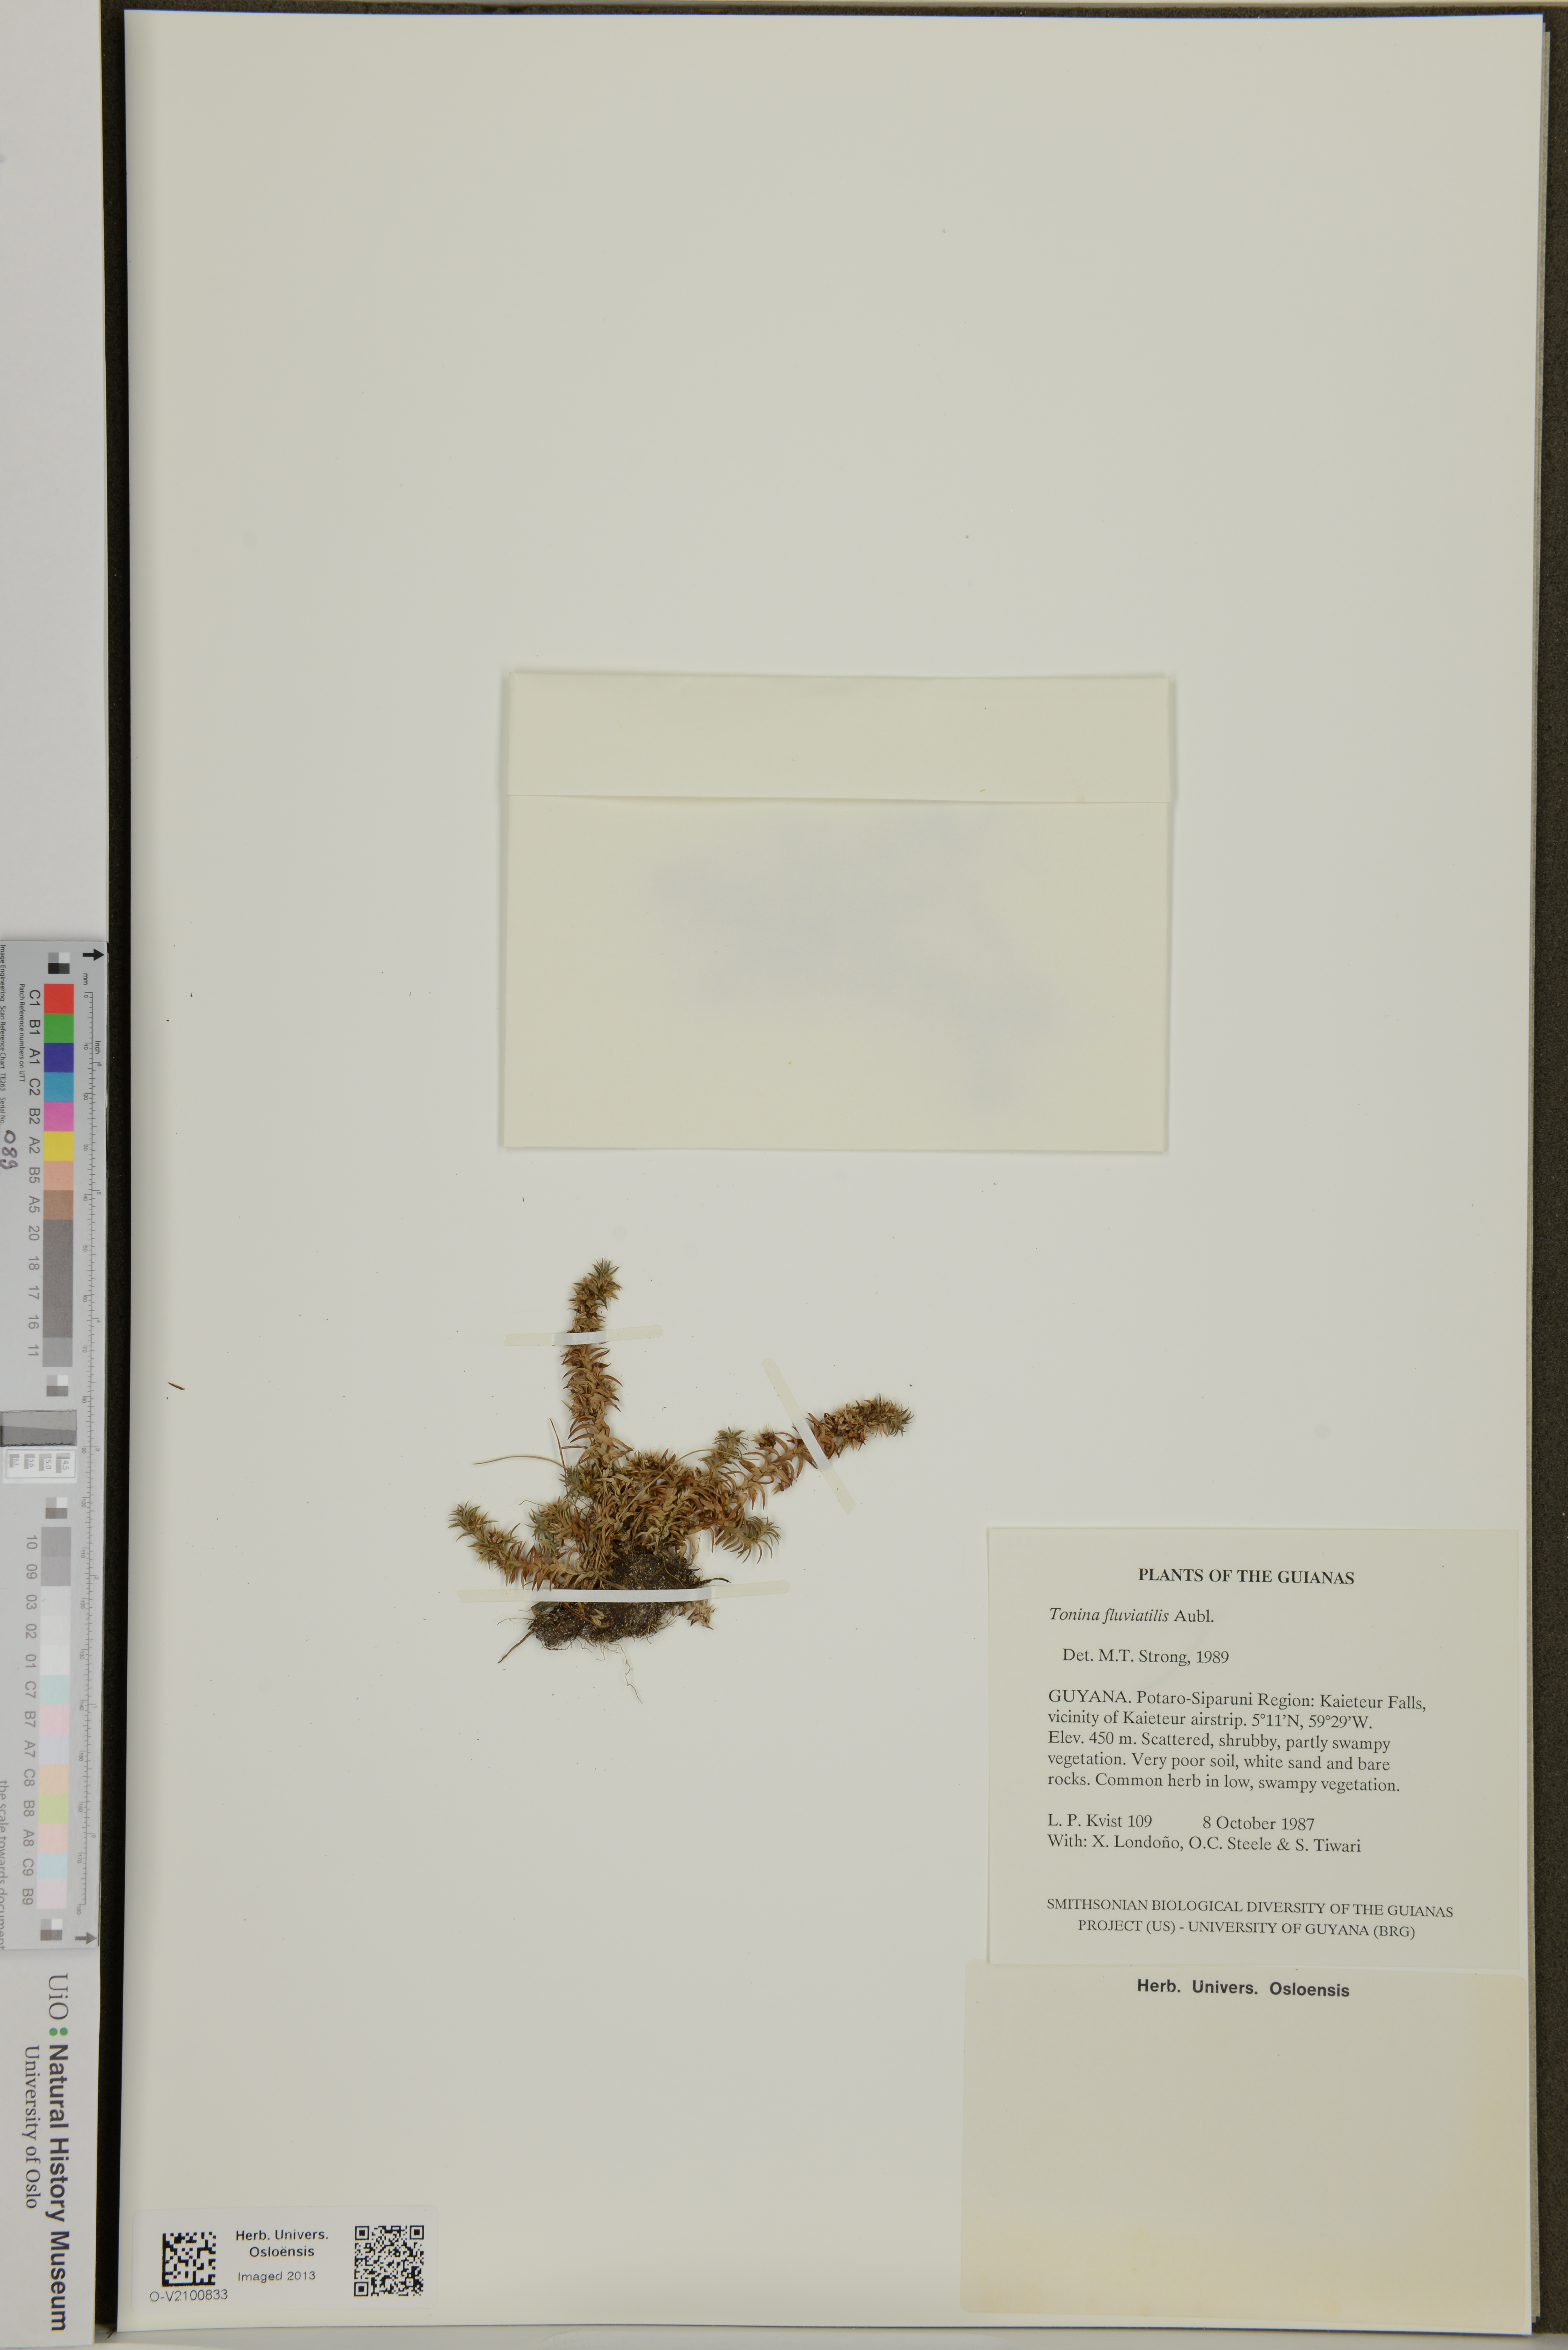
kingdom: Plantae
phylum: Tracheophyta
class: Liliopsida
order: Poales
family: Eriocaulaceae
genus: Paepalanthus
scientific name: Paepalanthus fluviatilis
